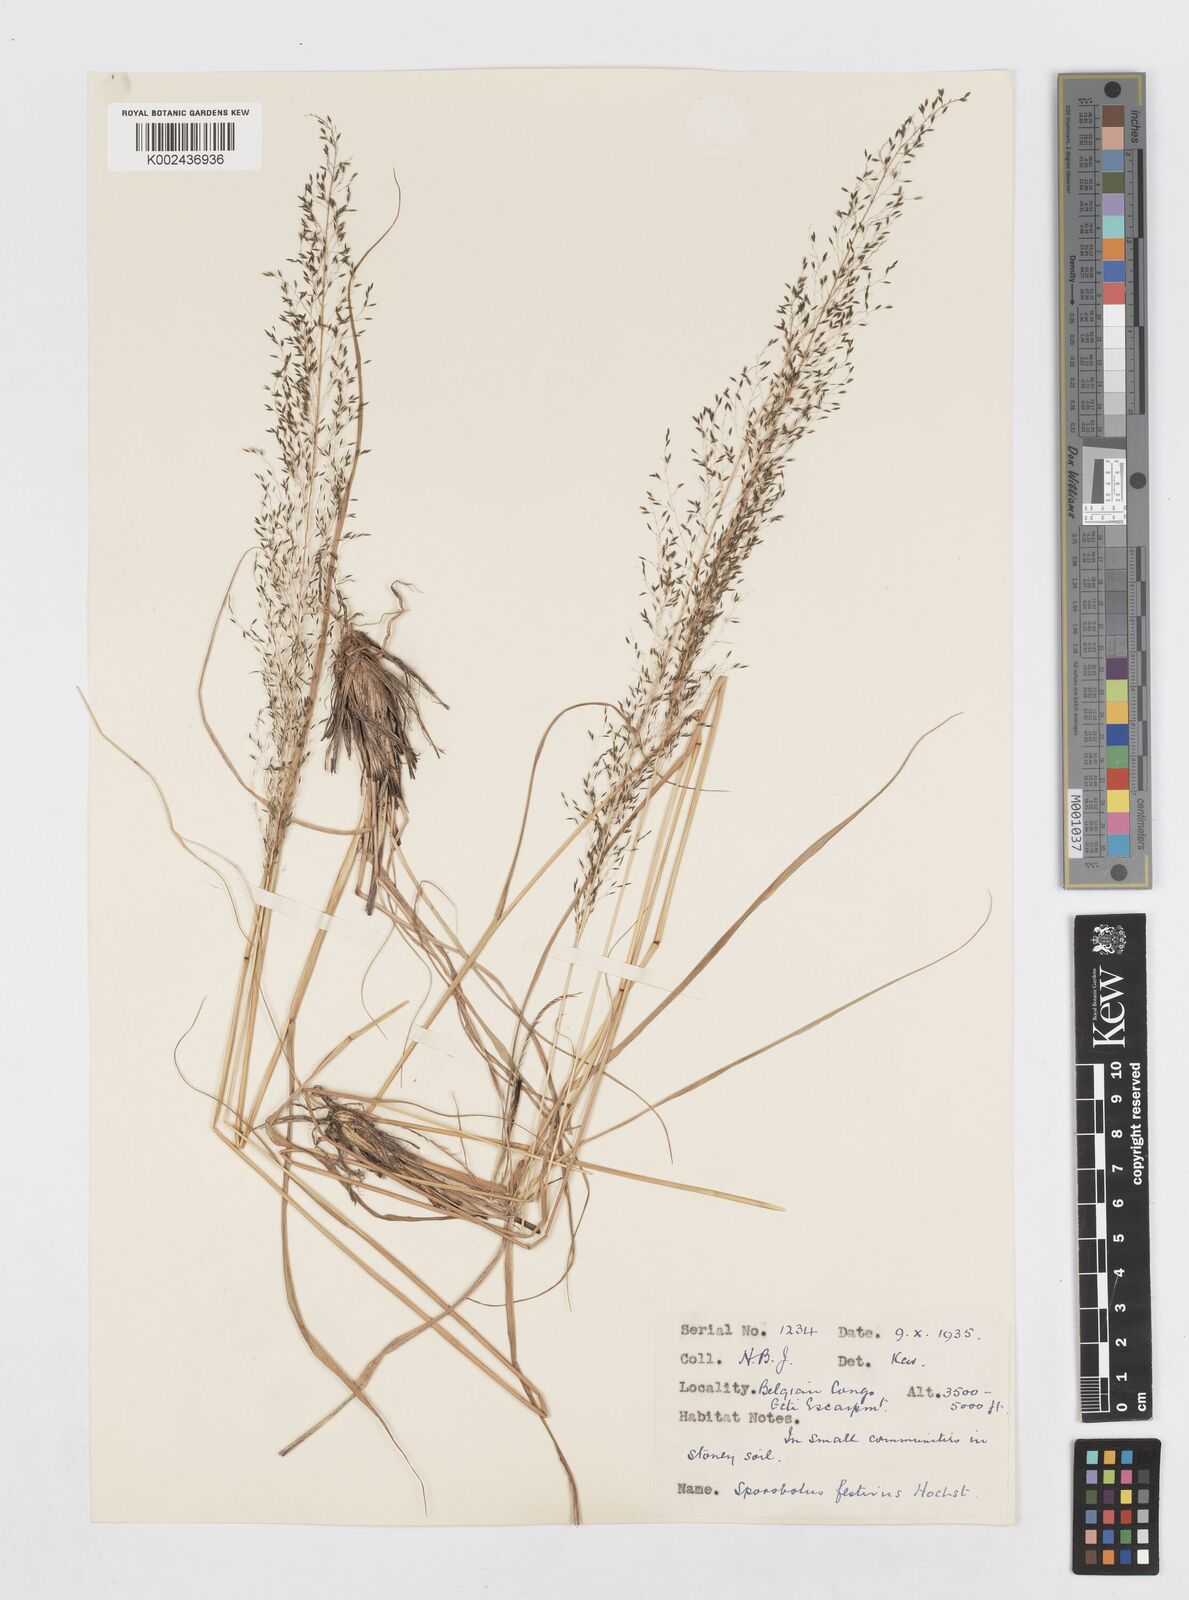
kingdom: Plantae
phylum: Tracheophyta
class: Liliopsida
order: Poales
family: Poaceae
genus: Sporobolus
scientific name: Sporobolus myrianthus
